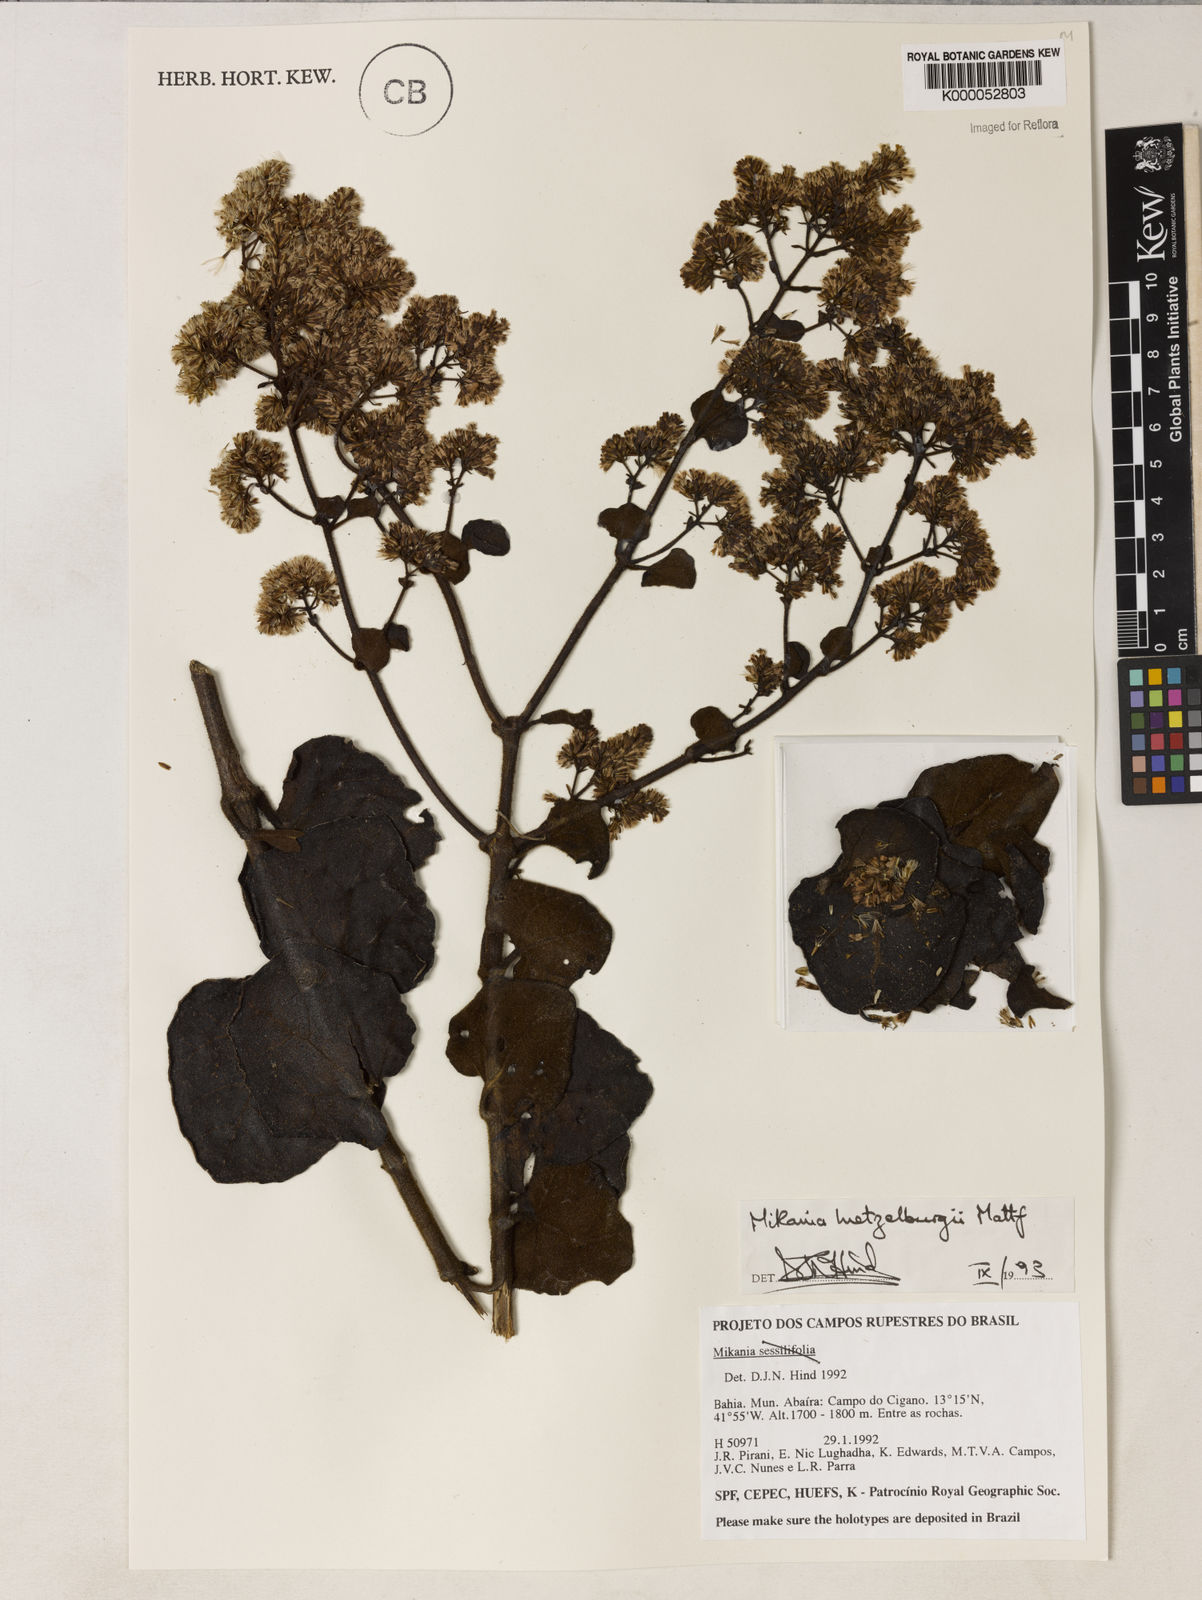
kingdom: Plantae
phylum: Tracheophyta
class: Magnoliopsida
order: Asterales
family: Asteraceae
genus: Mikania
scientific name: Mikania luetzelburgii
